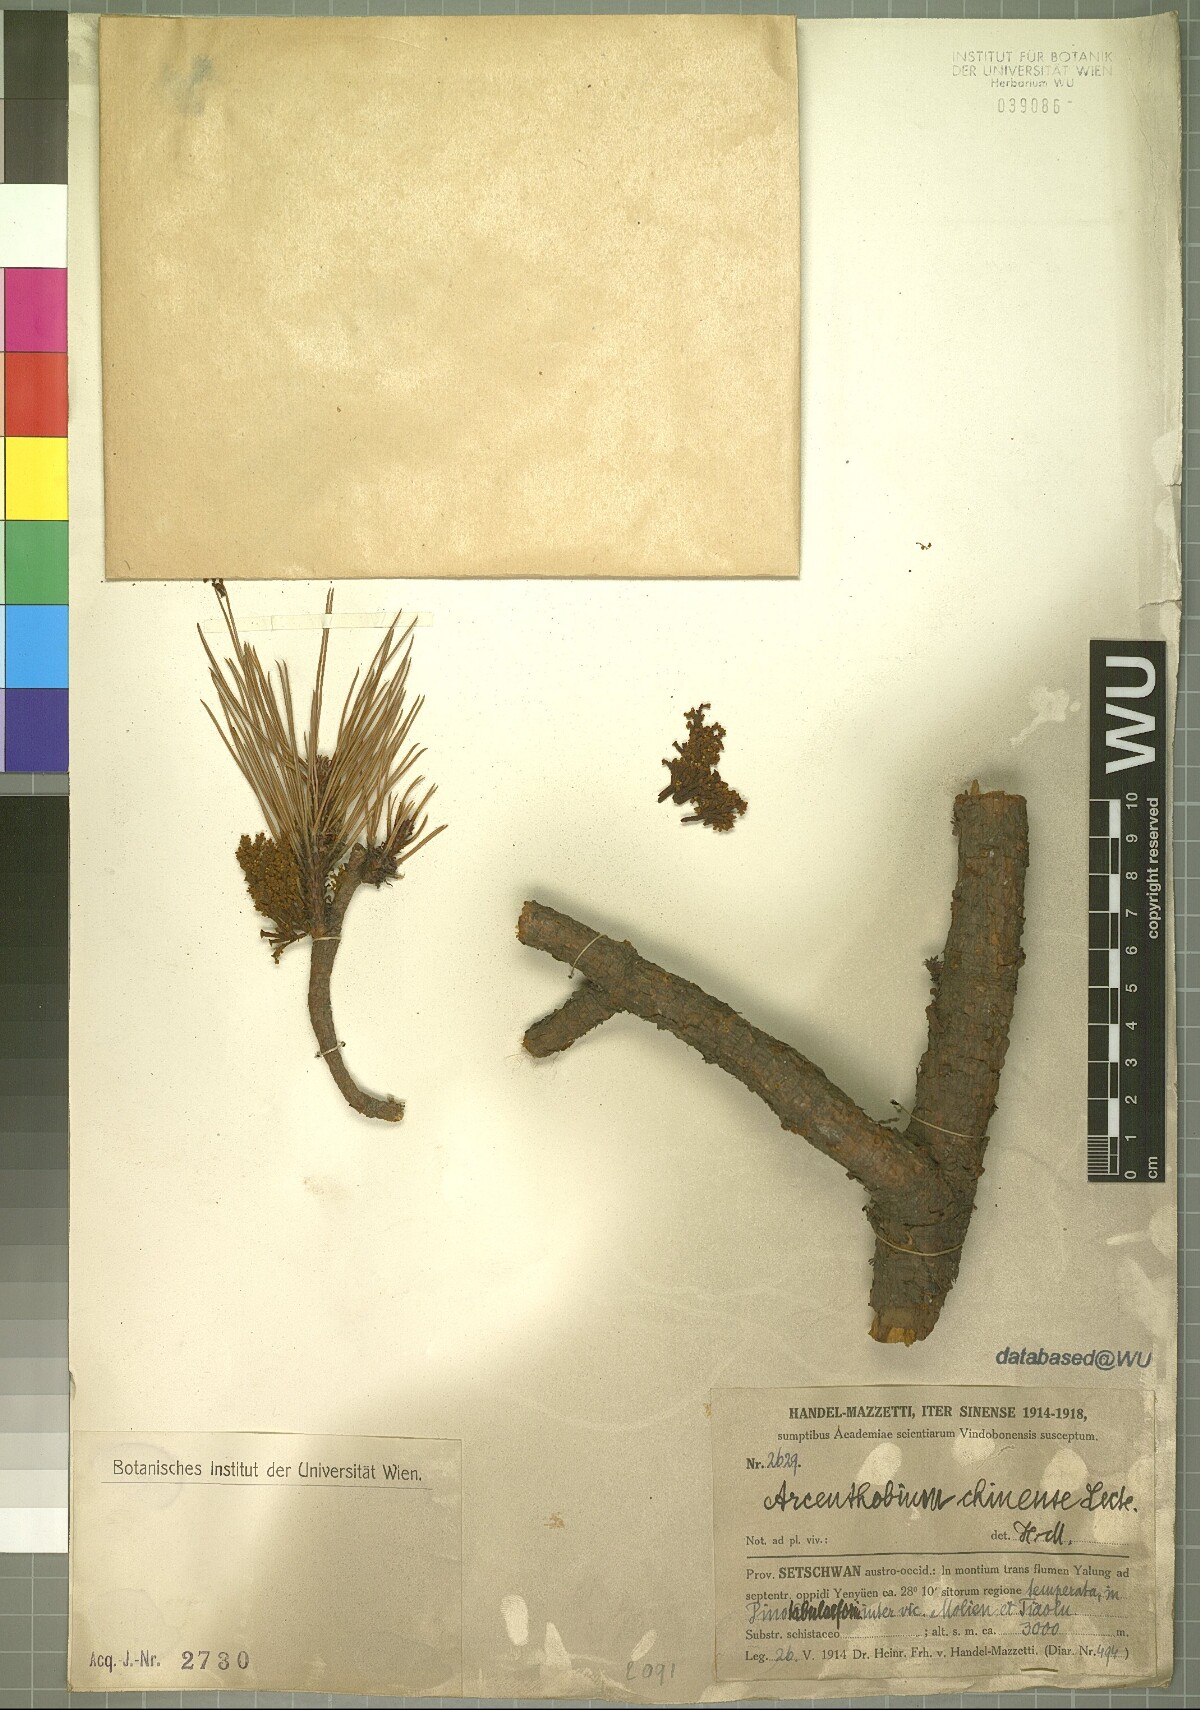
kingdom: Plantae
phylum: Tracheophyta
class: Magnoliopsida
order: Santalales
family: Viscaceae
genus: Arceuthobium
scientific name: Arceuthobium chinense
